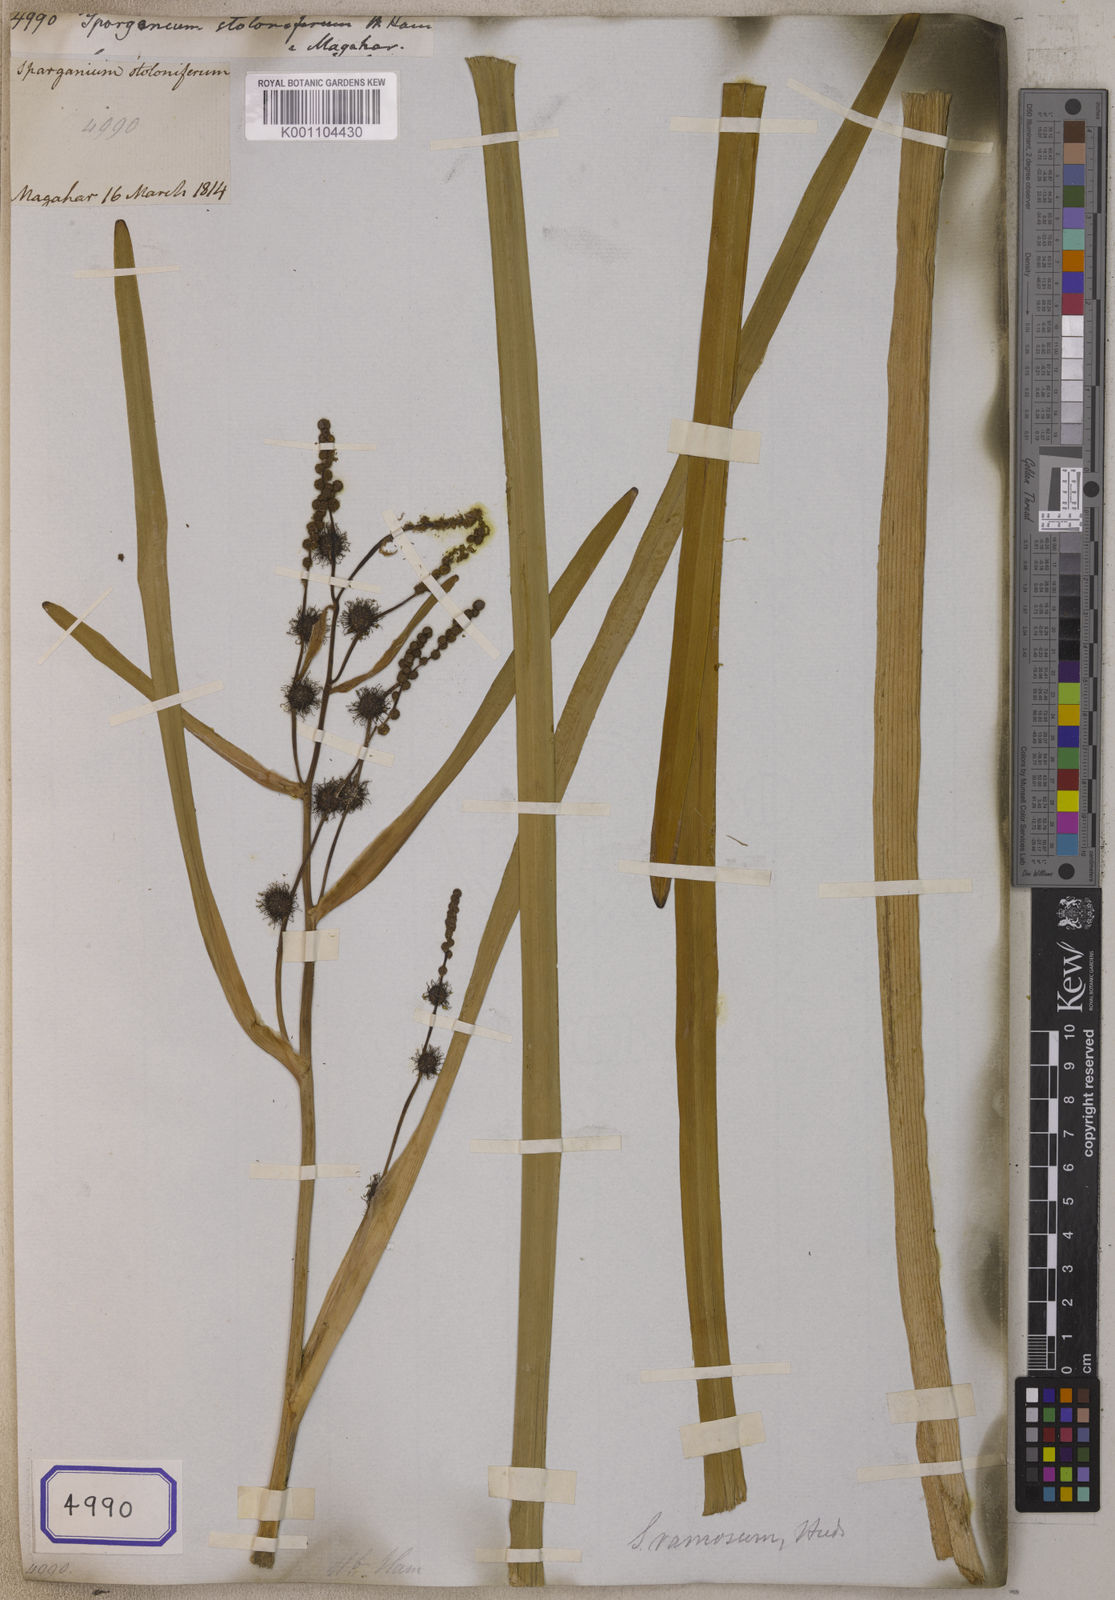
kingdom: Plantae
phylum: Tracheophyta
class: Liliopsida
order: Poales
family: Typhaceae
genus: Sparganium
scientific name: Sparganium
